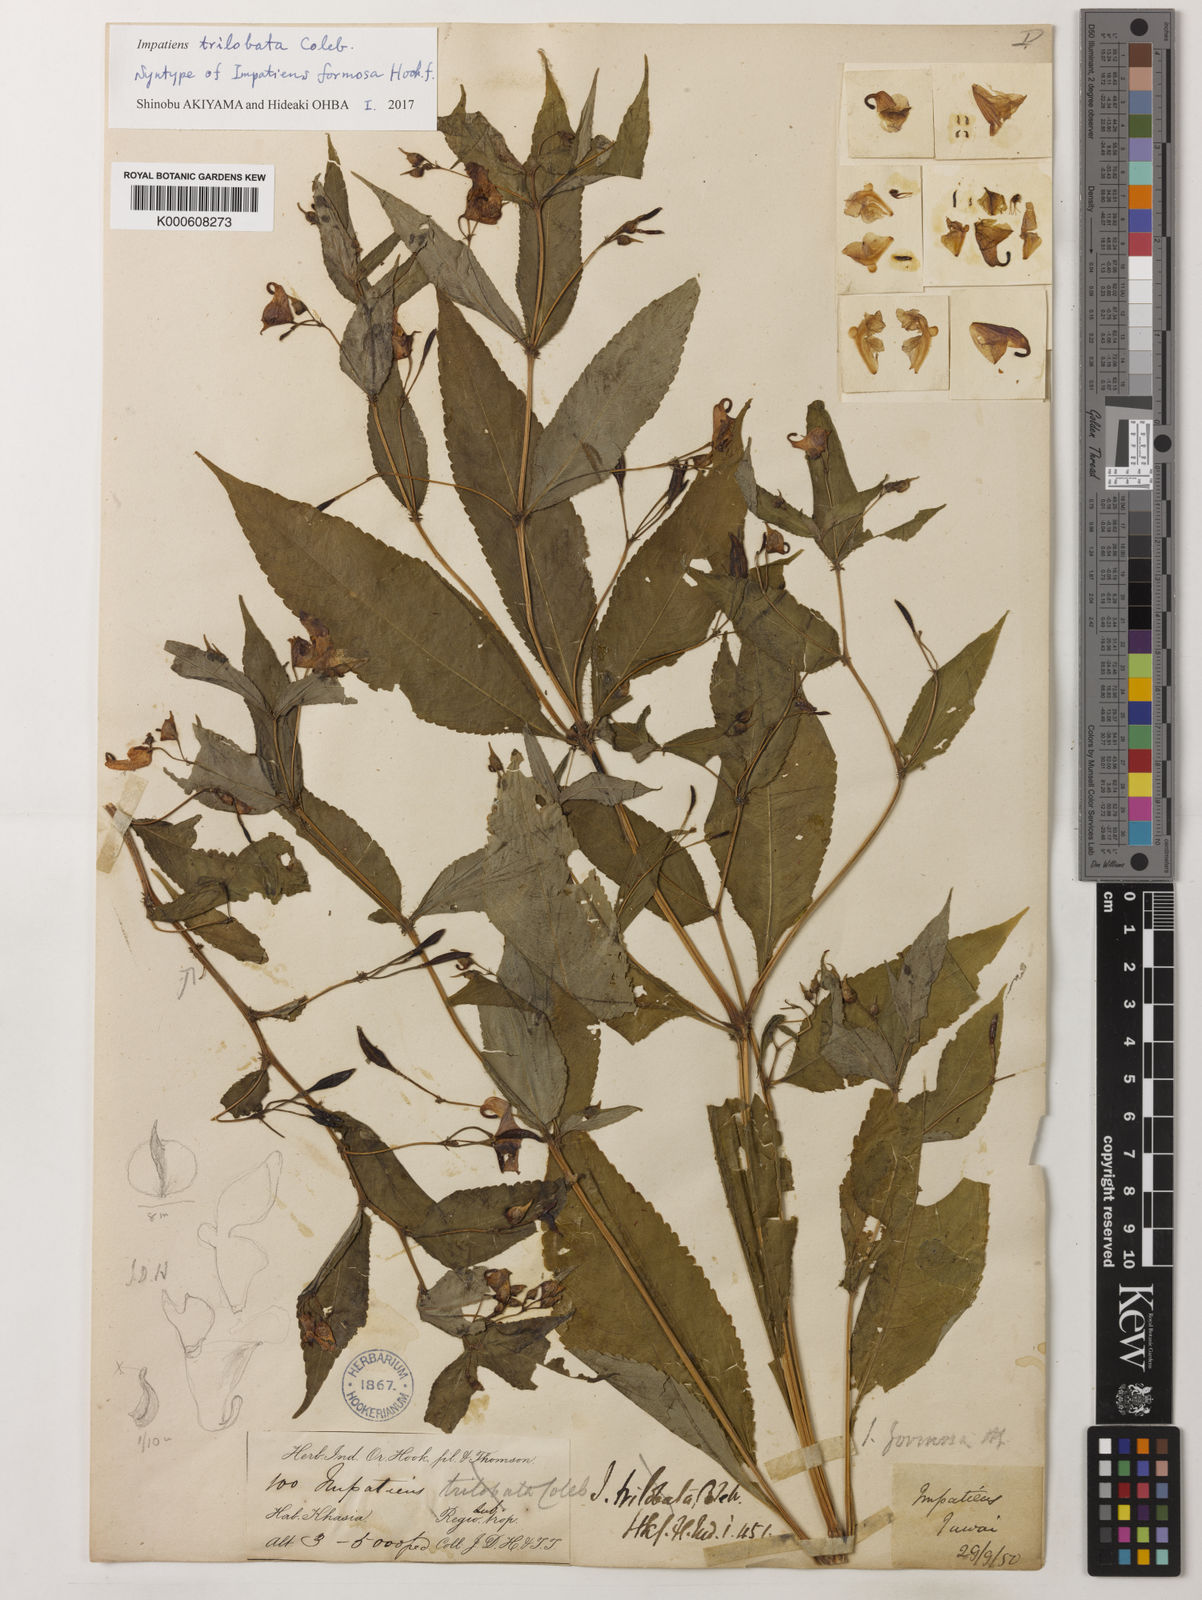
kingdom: Plantae
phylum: Tracheophyta
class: Magnoliopsida
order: Ericales
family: Balsaminaceae
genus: Impatiens
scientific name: Impatiens trilobata
